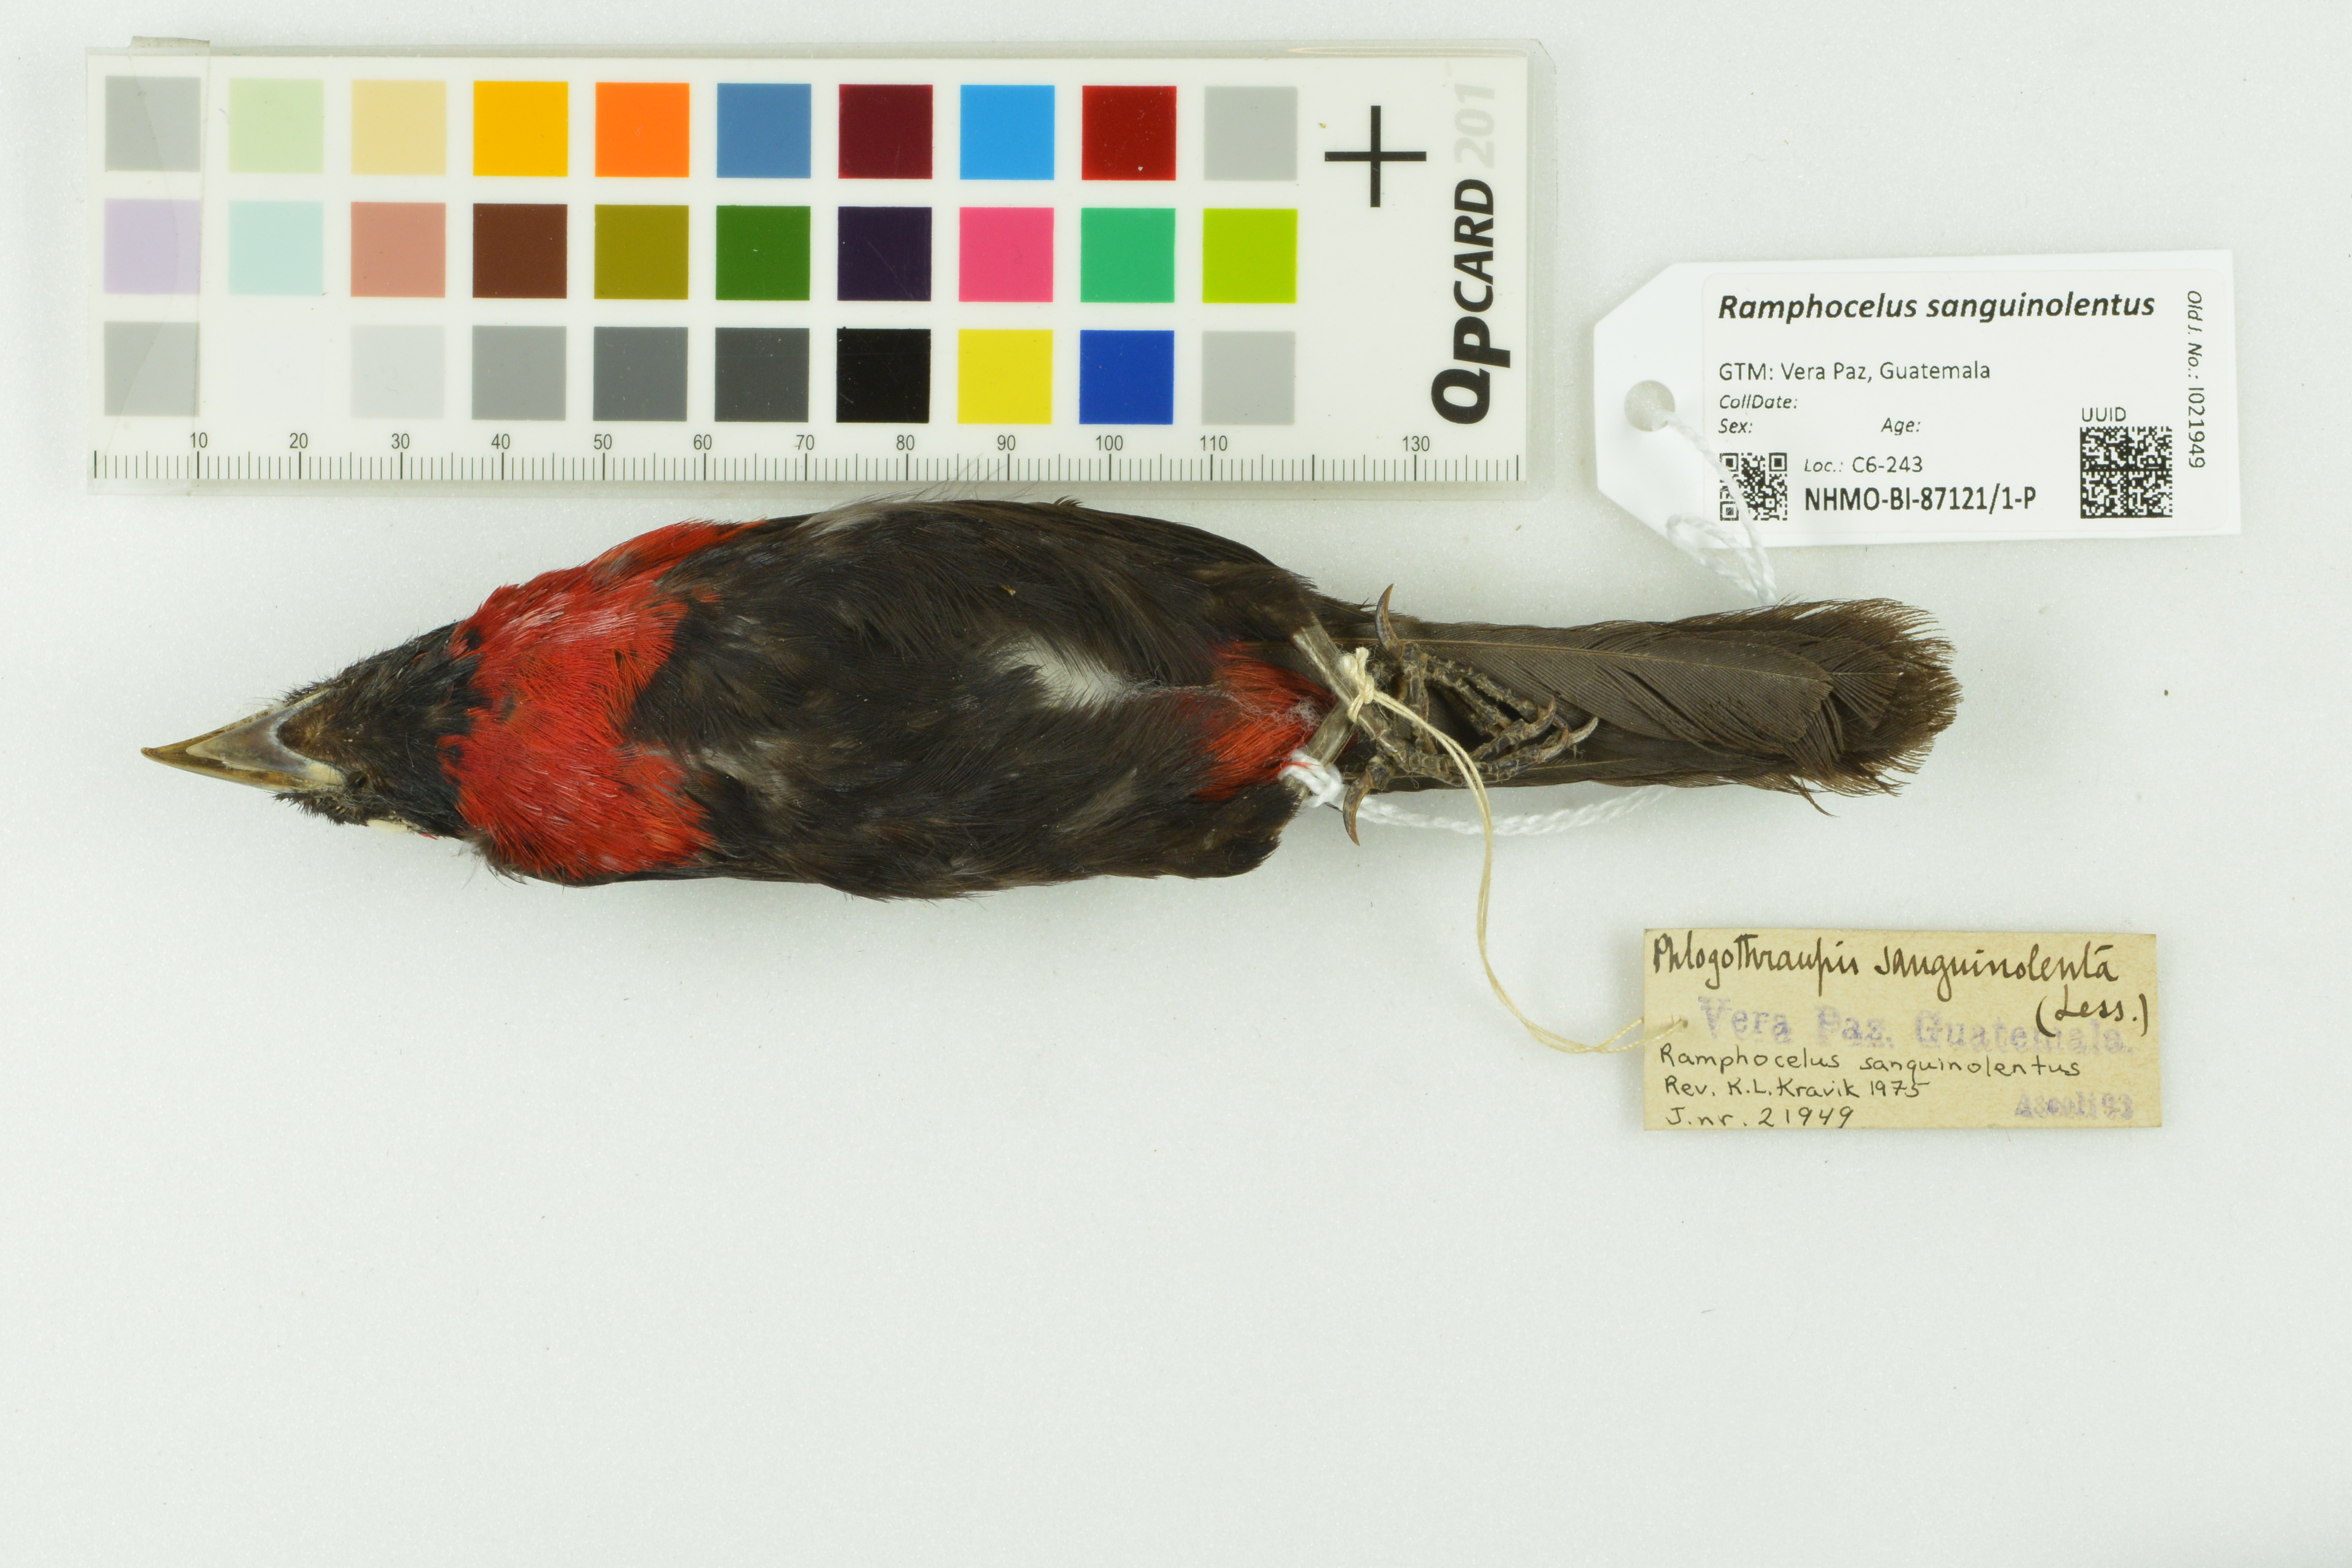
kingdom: Animalia
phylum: Chordata
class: Aves
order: Passeriformes
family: Thraupidae
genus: Ramphocelus
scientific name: Ramphocelus sanguinolentus
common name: Crimson-collared tanager
